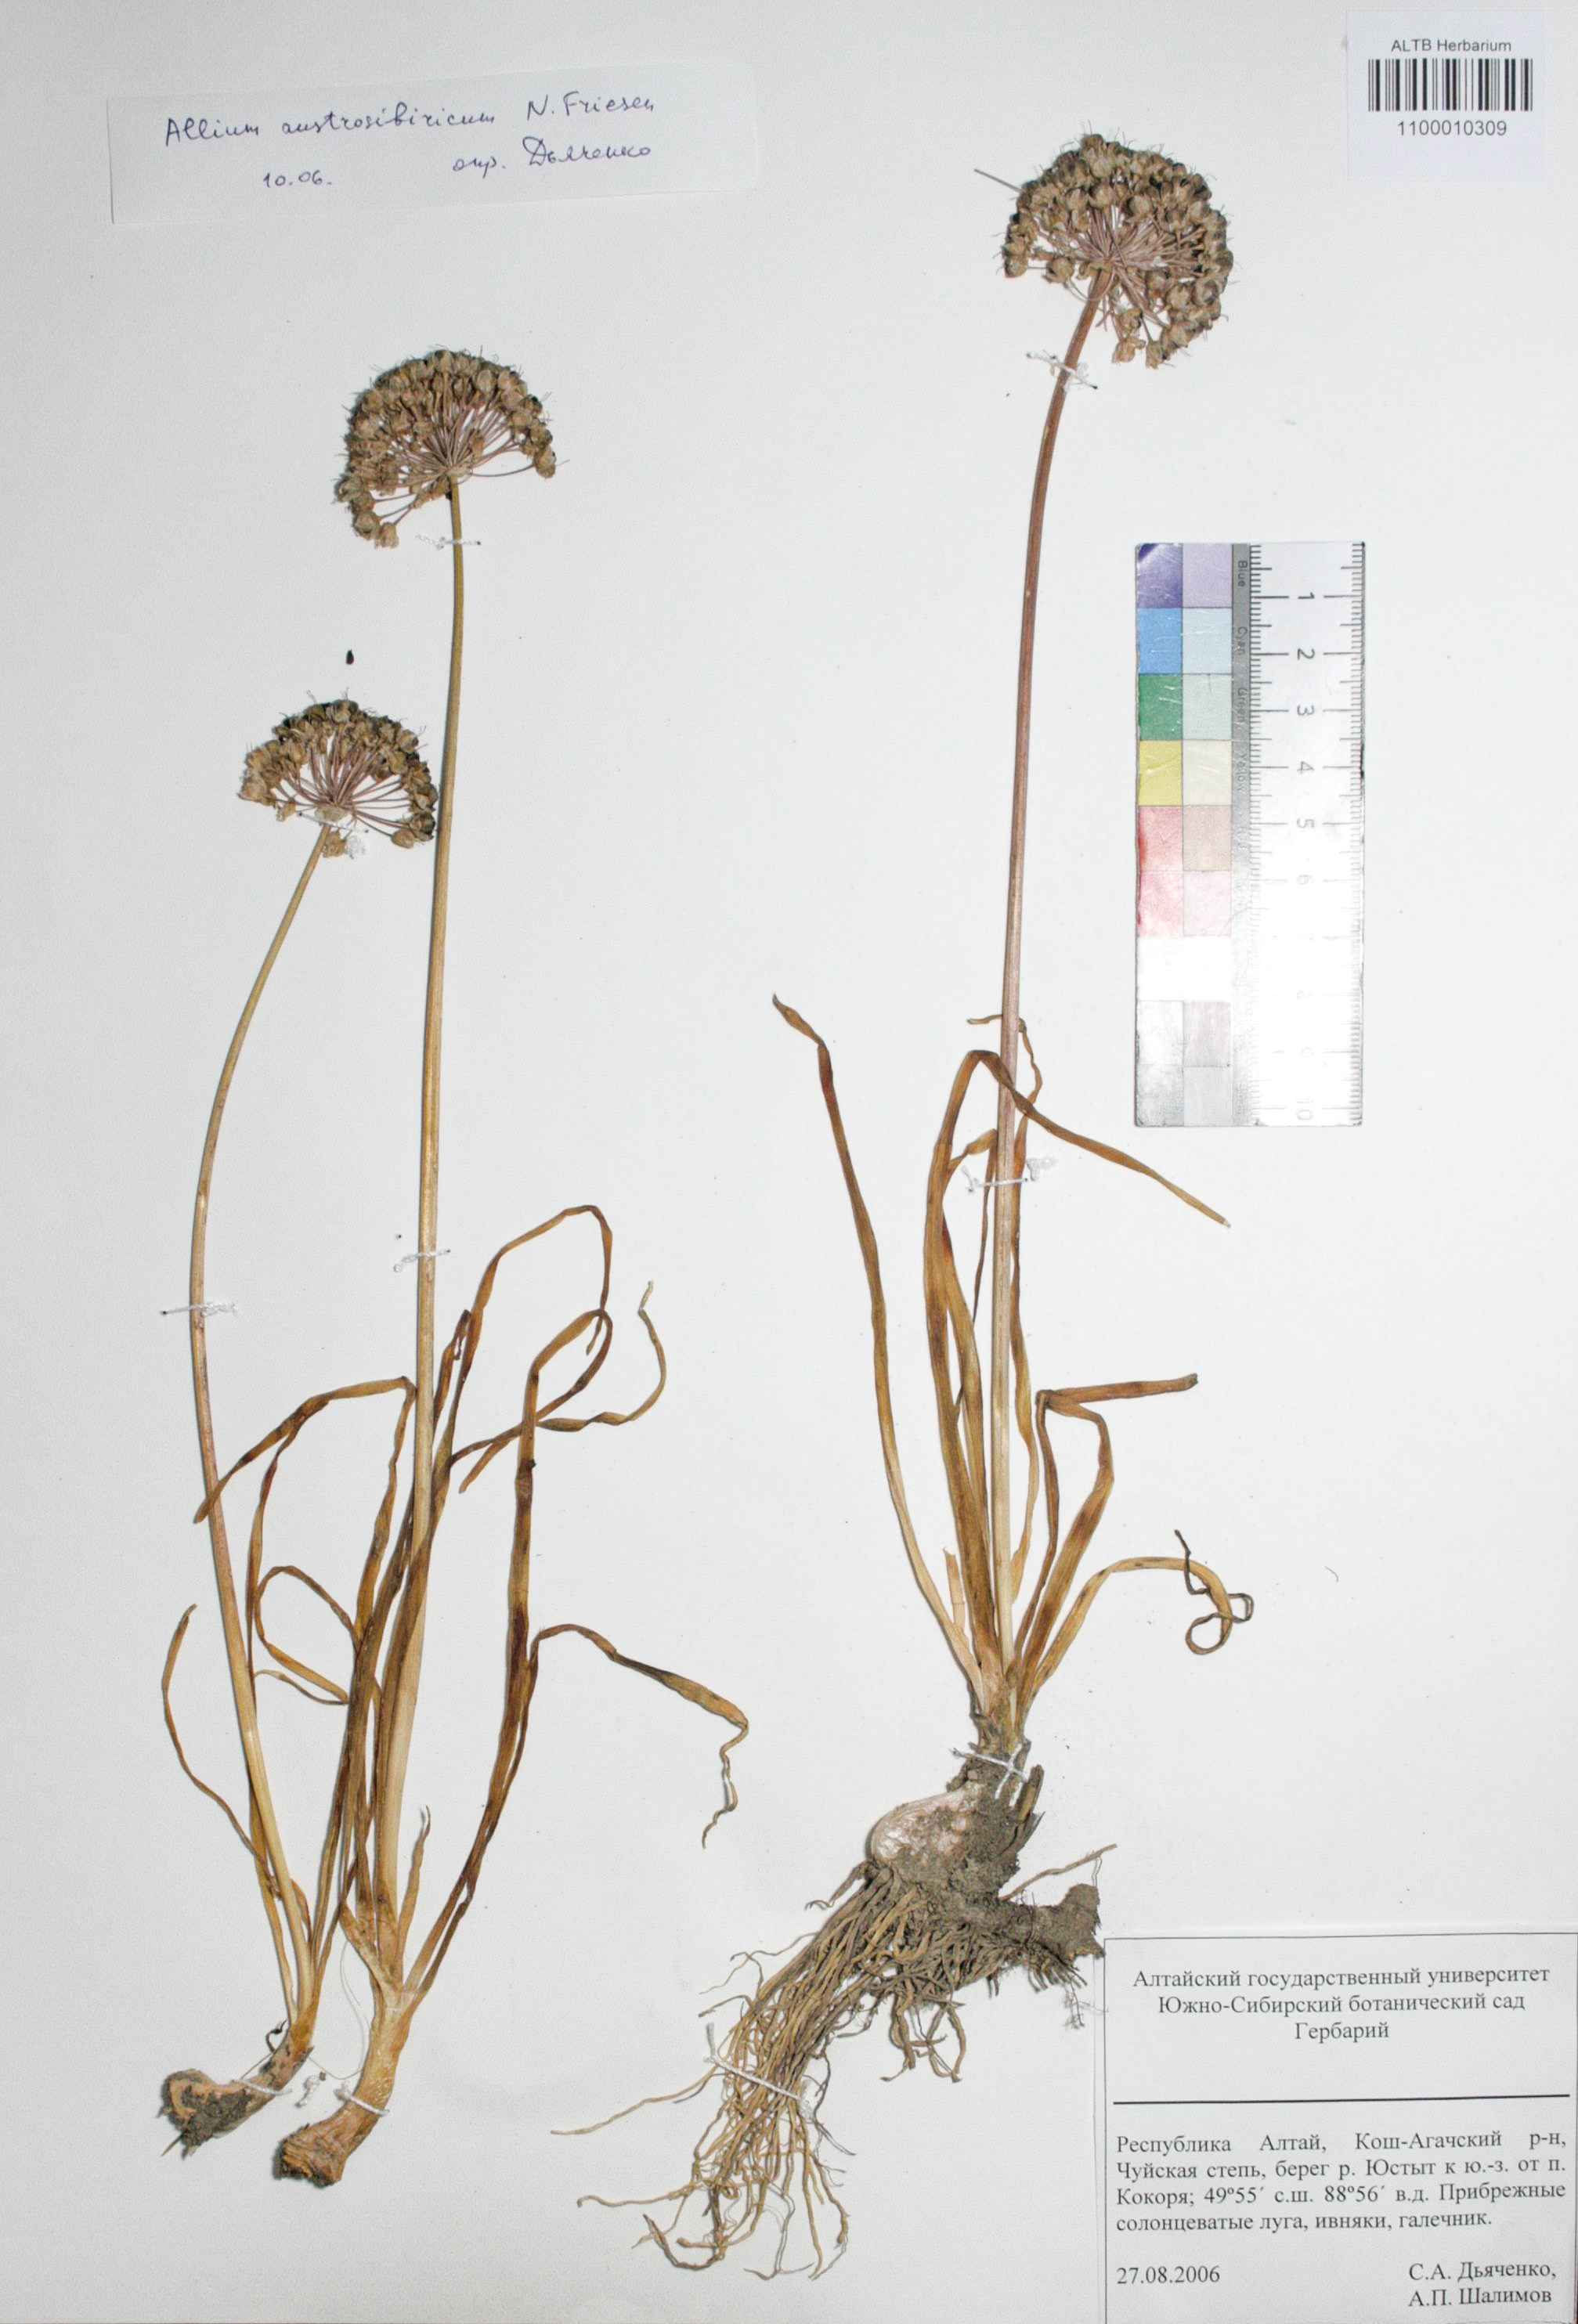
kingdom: Plantae
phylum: Tracheophyta
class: Liliopsida
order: Asparagales
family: Amaryllidaceae
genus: Allium
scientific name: Allium austrosibiricum
